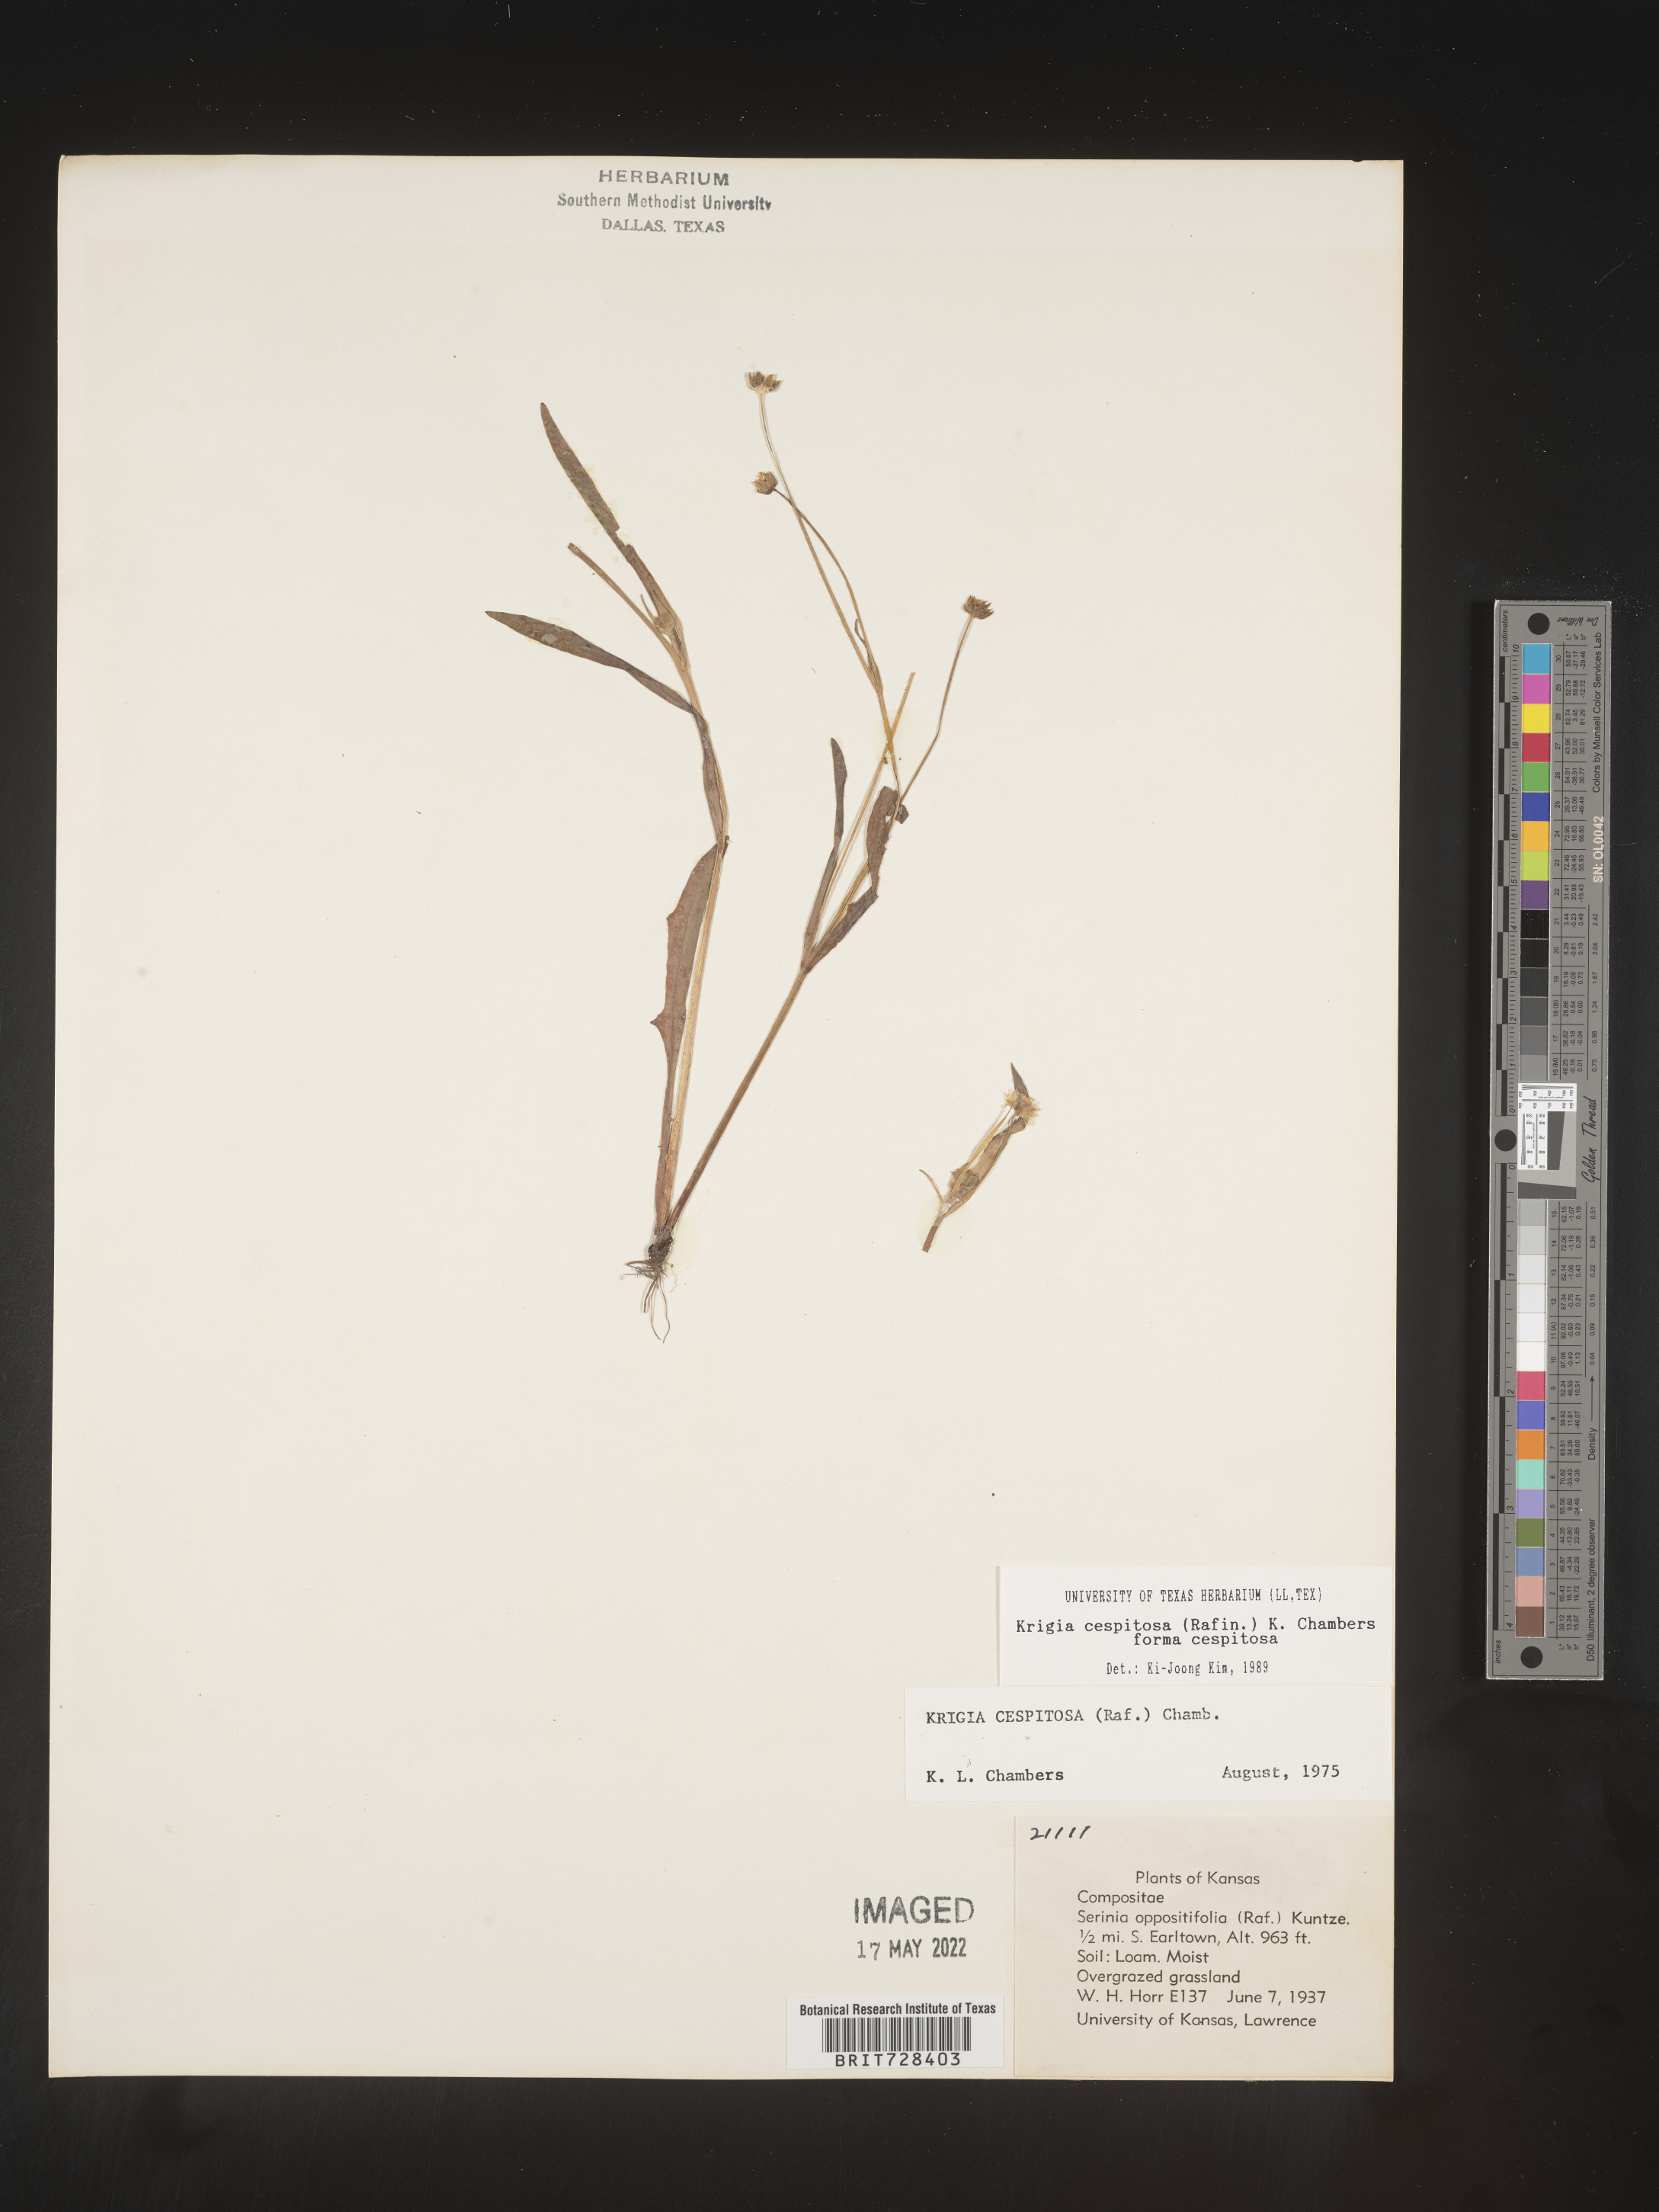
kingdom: Plantae
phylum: Tracheophyta
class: Magnoliopsida
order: Asterales
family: Asteraceae
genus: Krigia
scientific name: Krigia caespitosa
